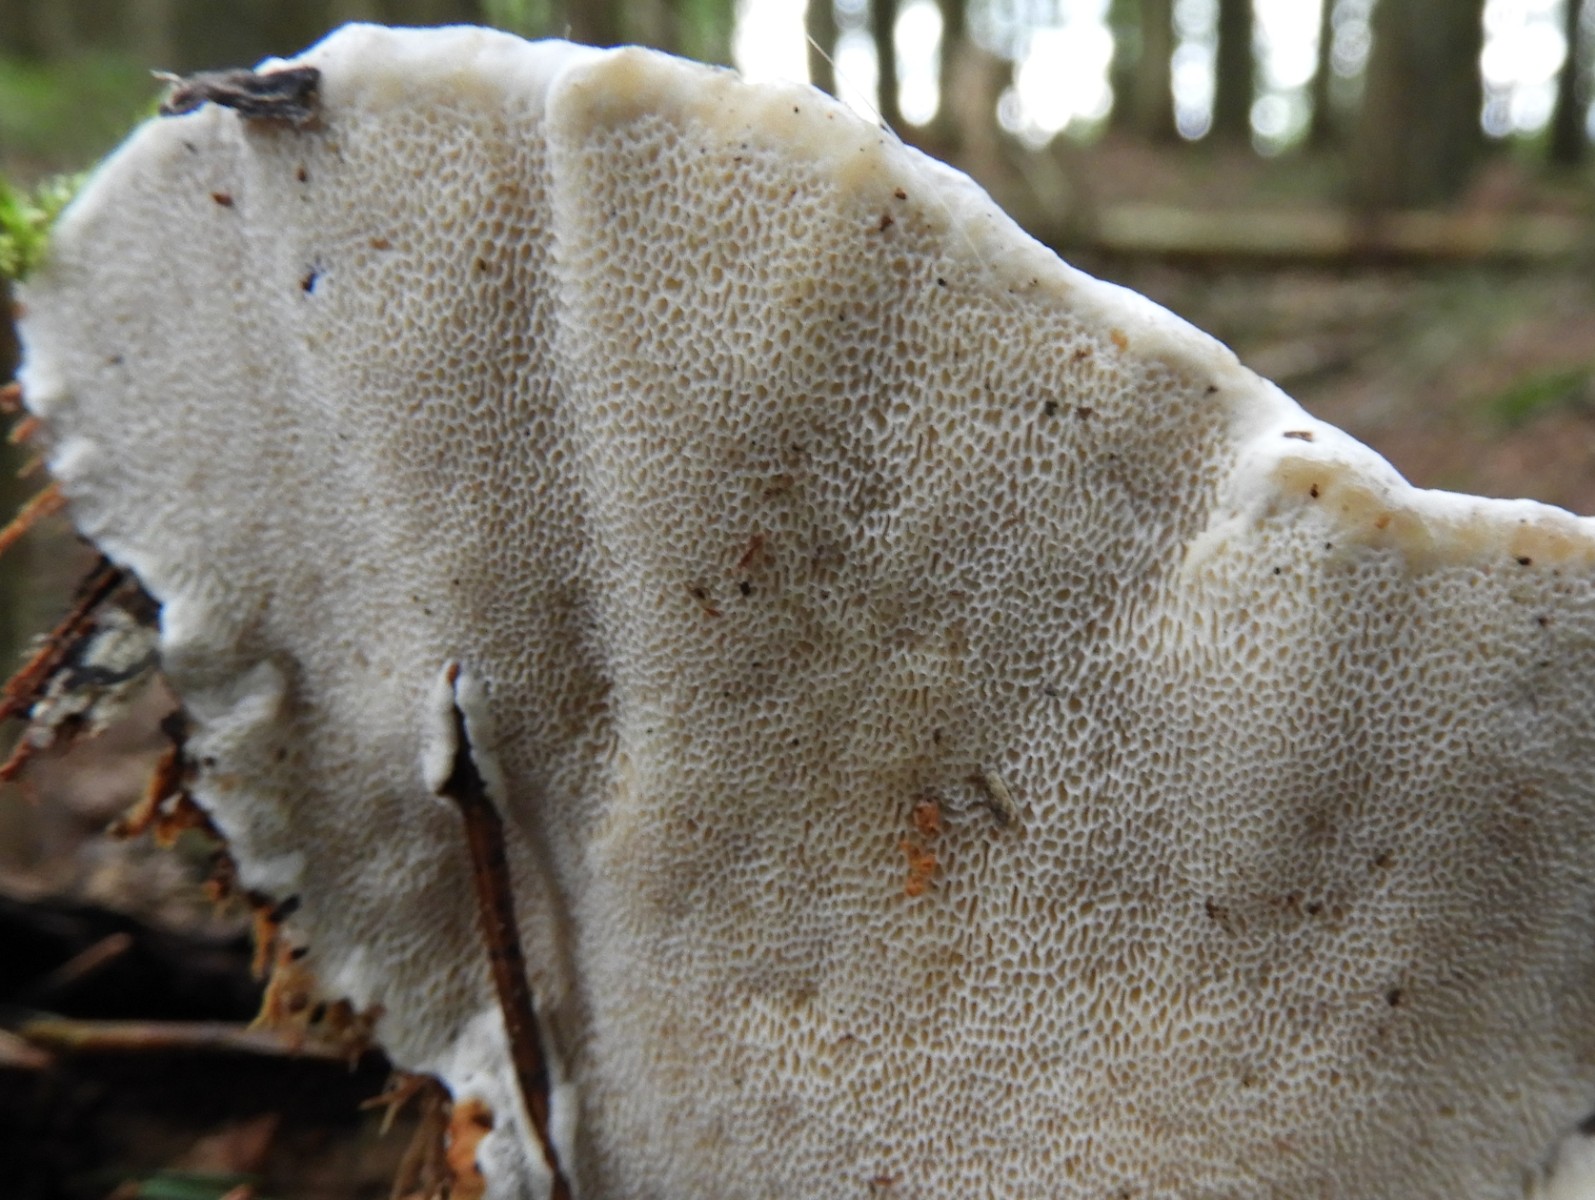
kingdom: Fungi
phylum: Basidiomycota
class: Agaricomycetes
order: Russulales
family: Bondarzewiaceae
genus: Heterobasidion
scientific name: Heterobasidion annosum
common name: almindelig rodfordærver
